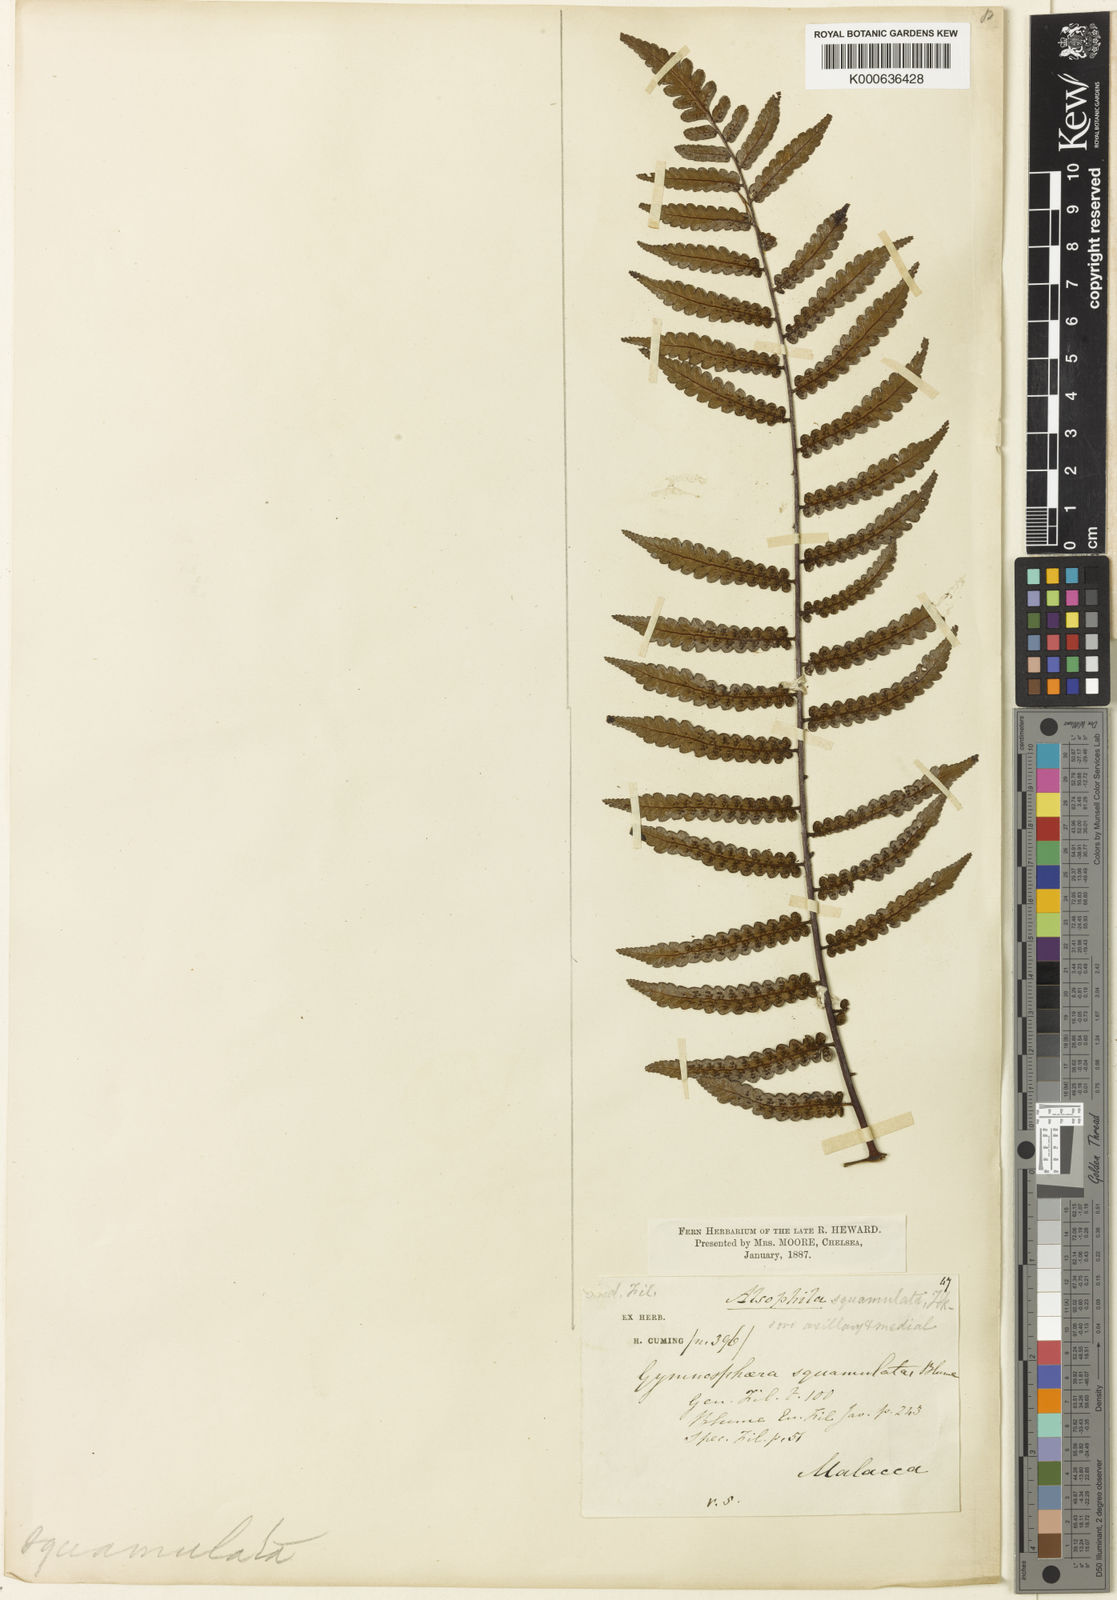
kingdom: Plantae
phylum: Tracheophyta
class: Polypodiopsida
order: Cyatheales
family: Cyatheaceae
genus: Gymnosphaera
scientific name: Gymnosphaera commutata
